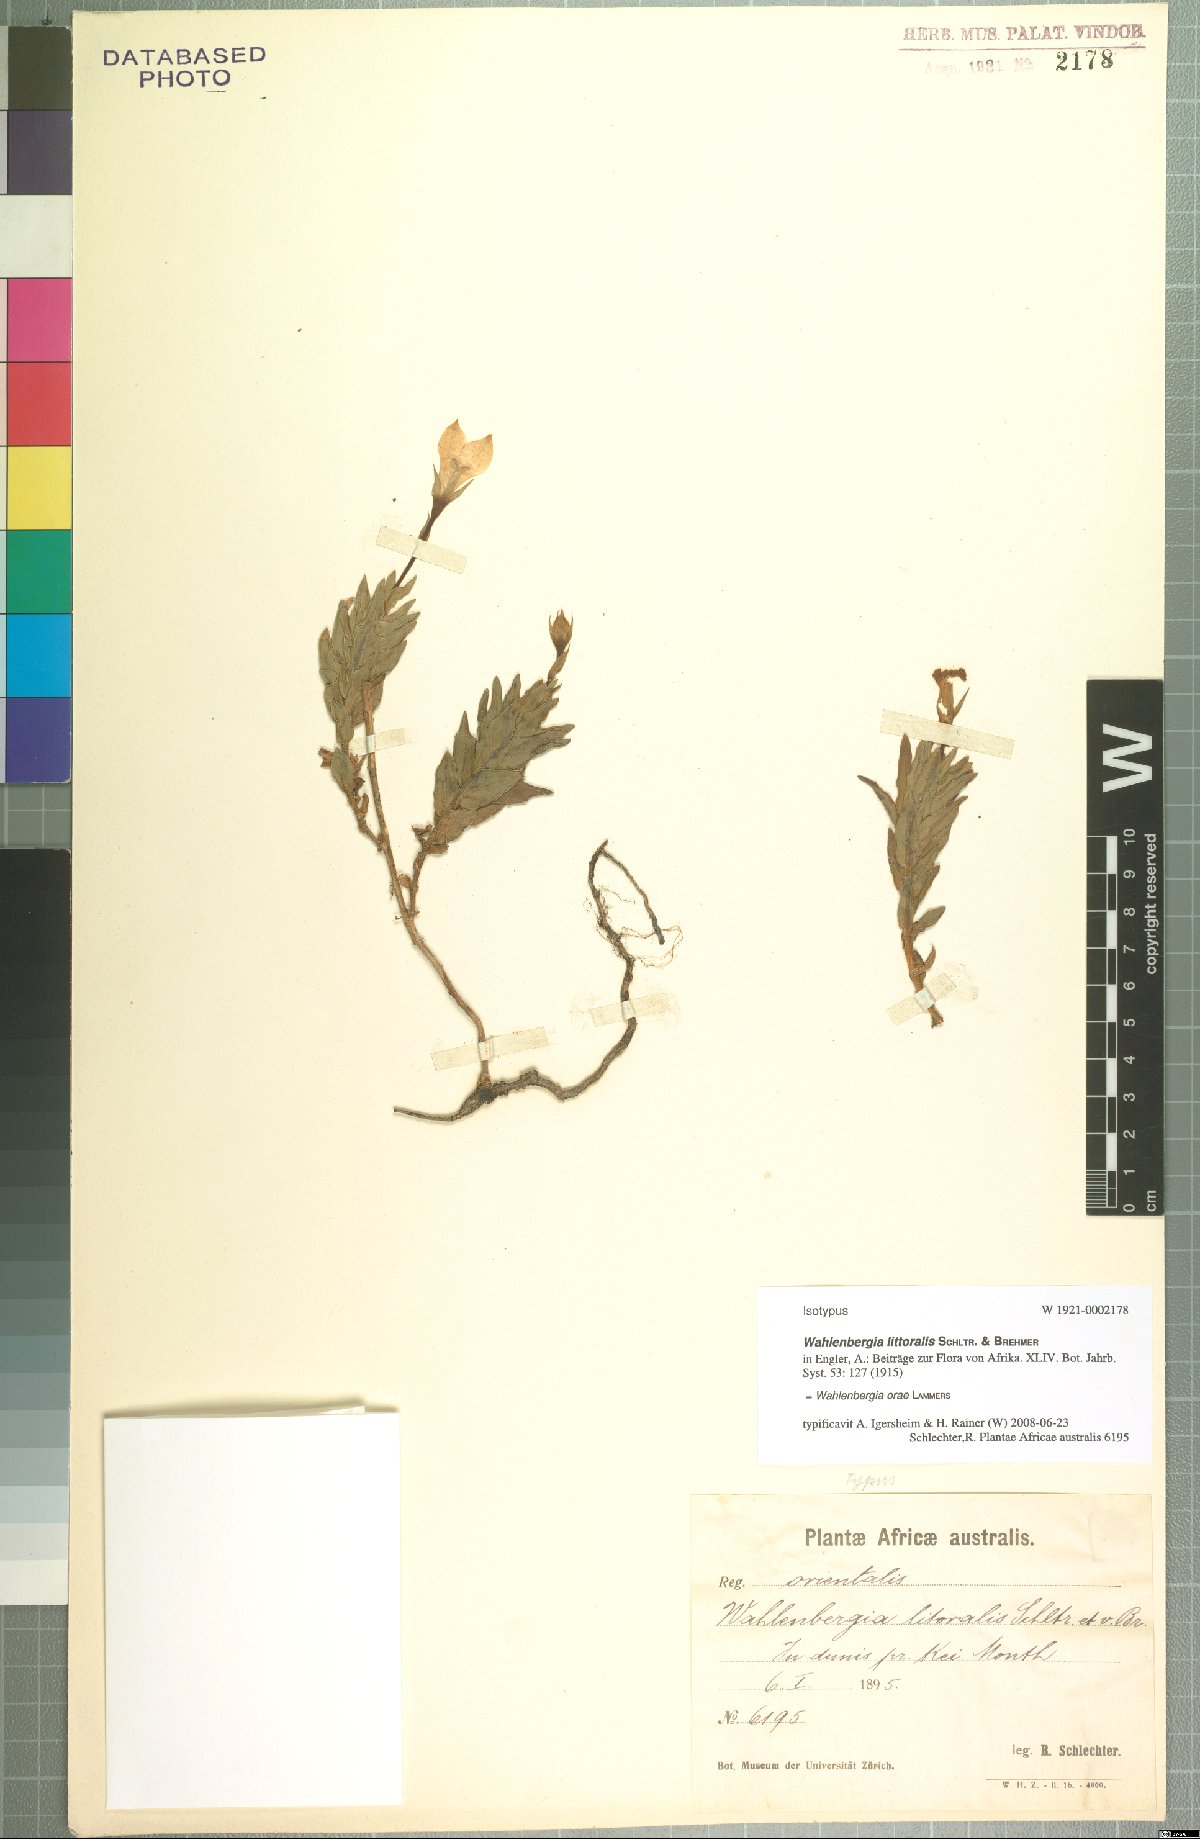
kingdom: Plantae
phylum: Tracheophyta
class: Magnoliopsida
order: Asterales
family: Campanulaceae
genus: Wahlenbergia
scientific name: Wahlenbergia orae
